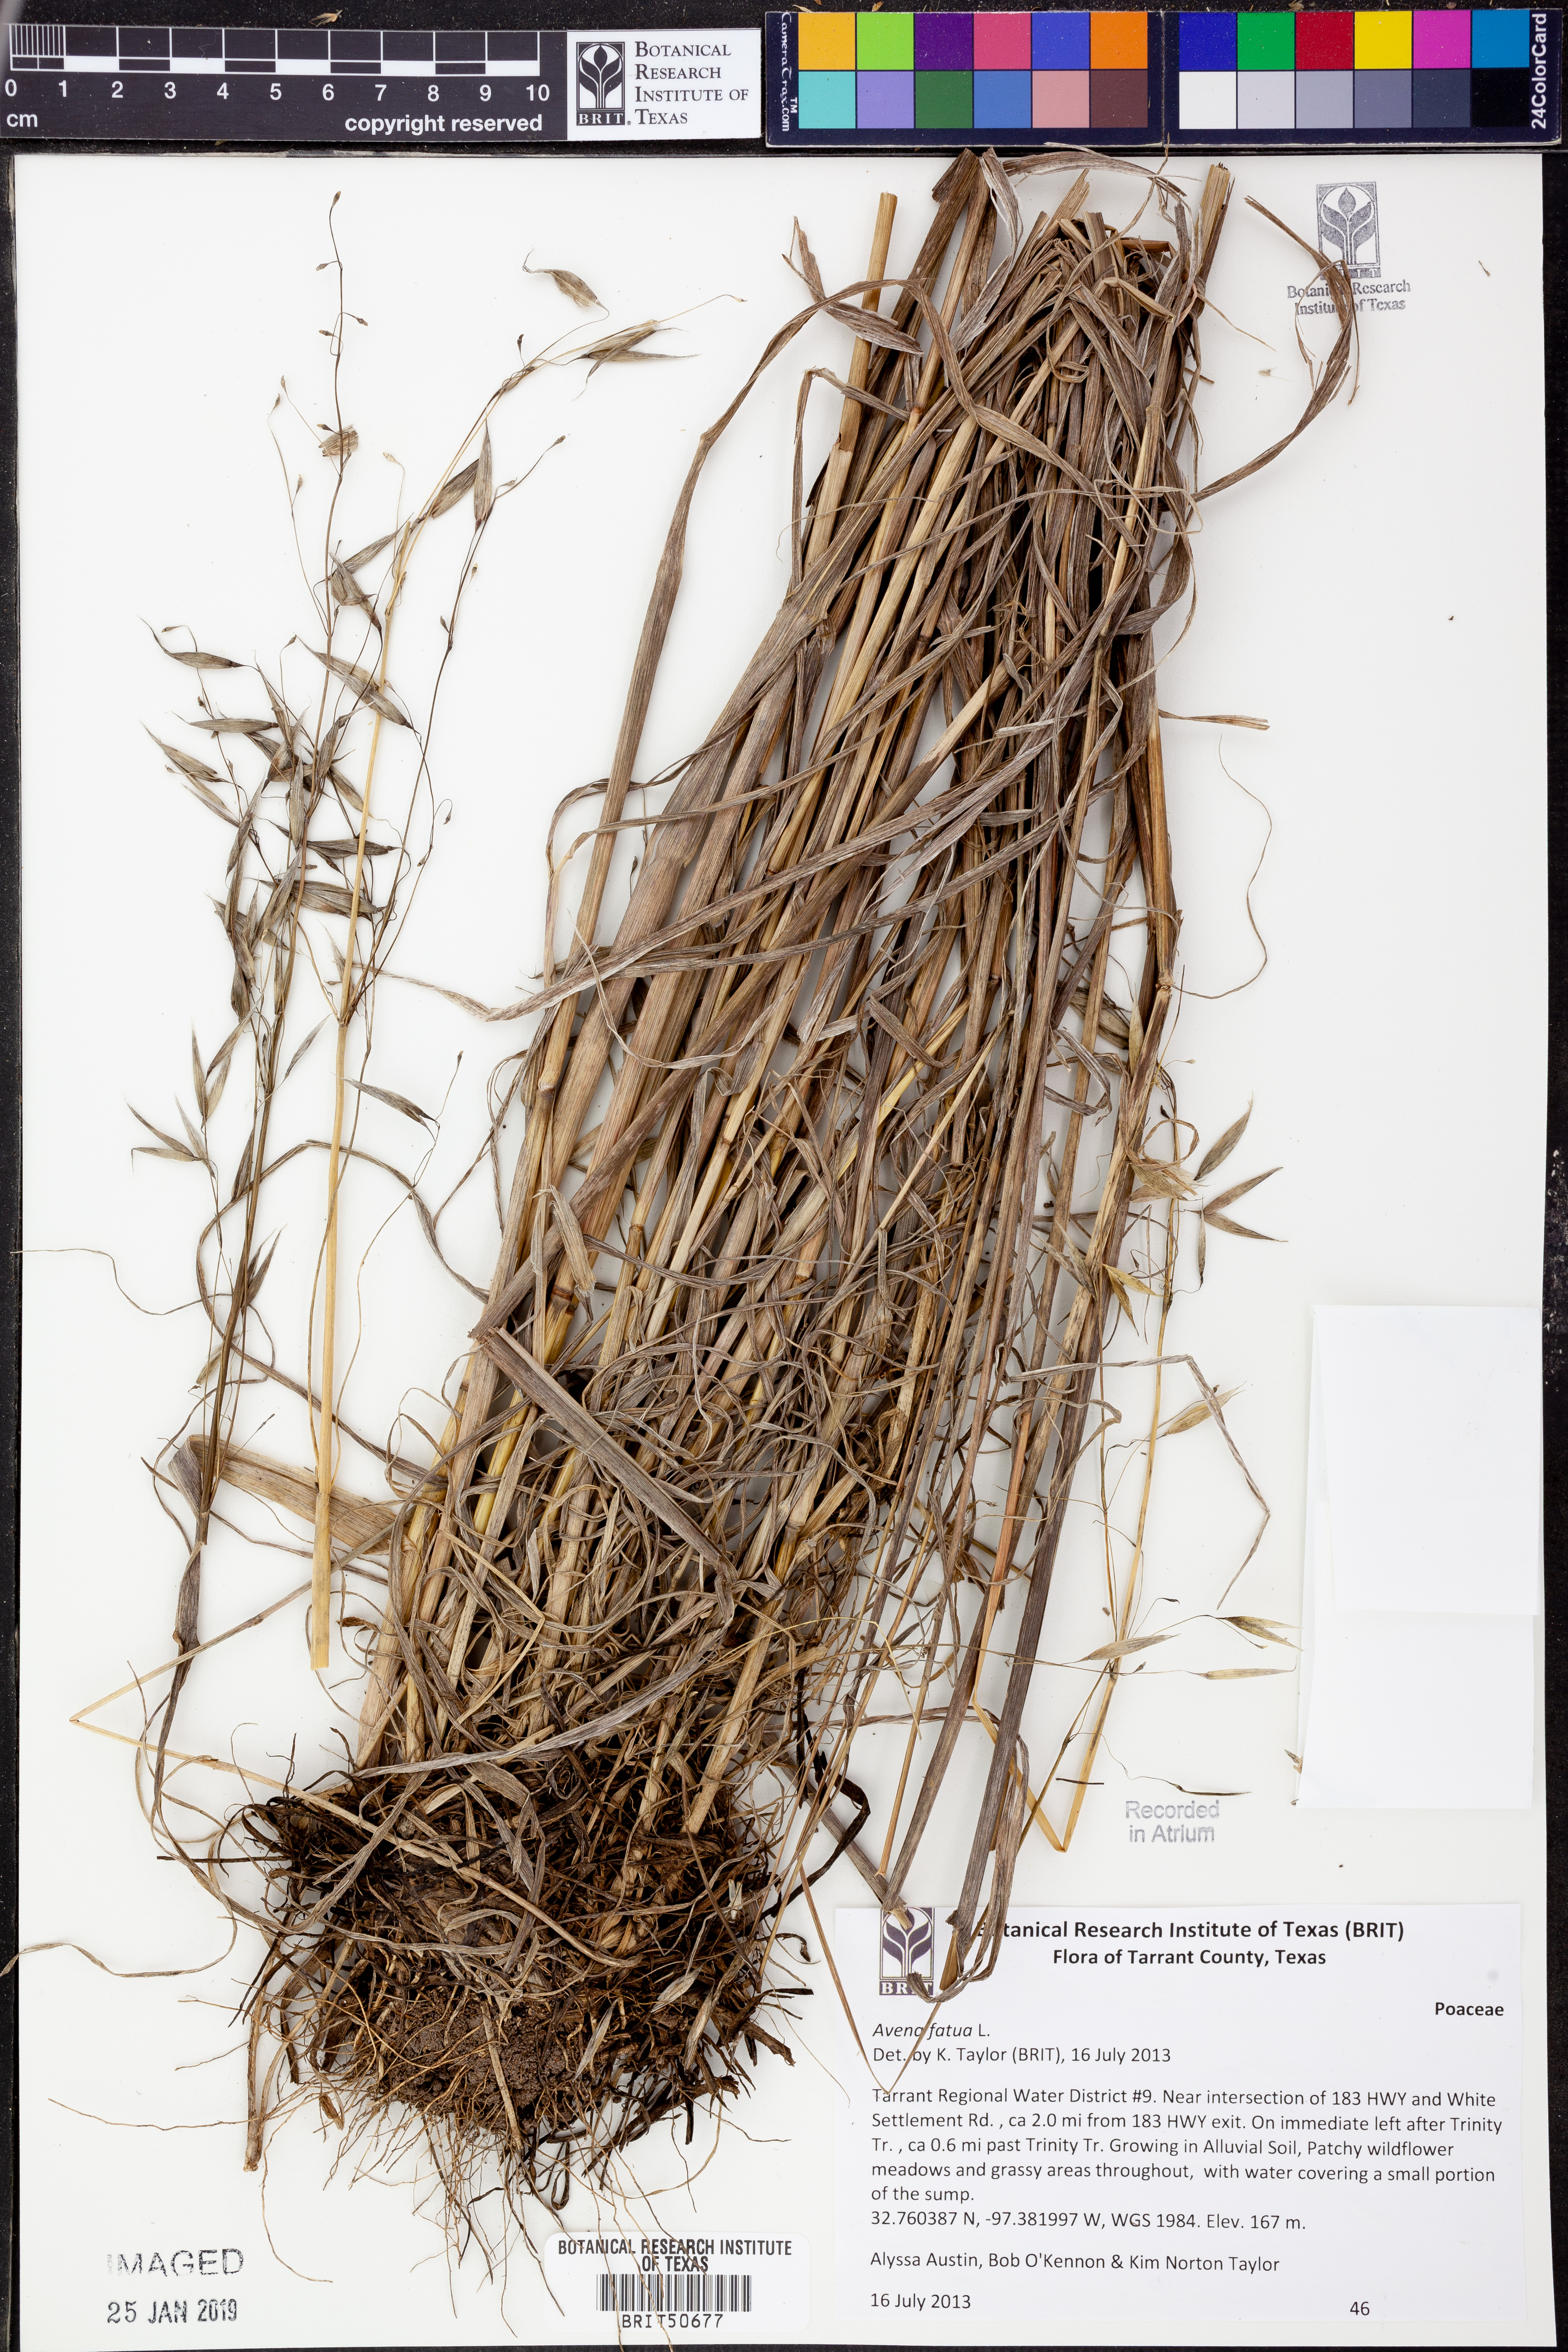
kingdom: Plantae
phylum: Tracheophyta
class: Liliopsida
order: Poales
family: Poaceae
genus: Avena
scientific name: Avena fatua
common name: Wild oat
